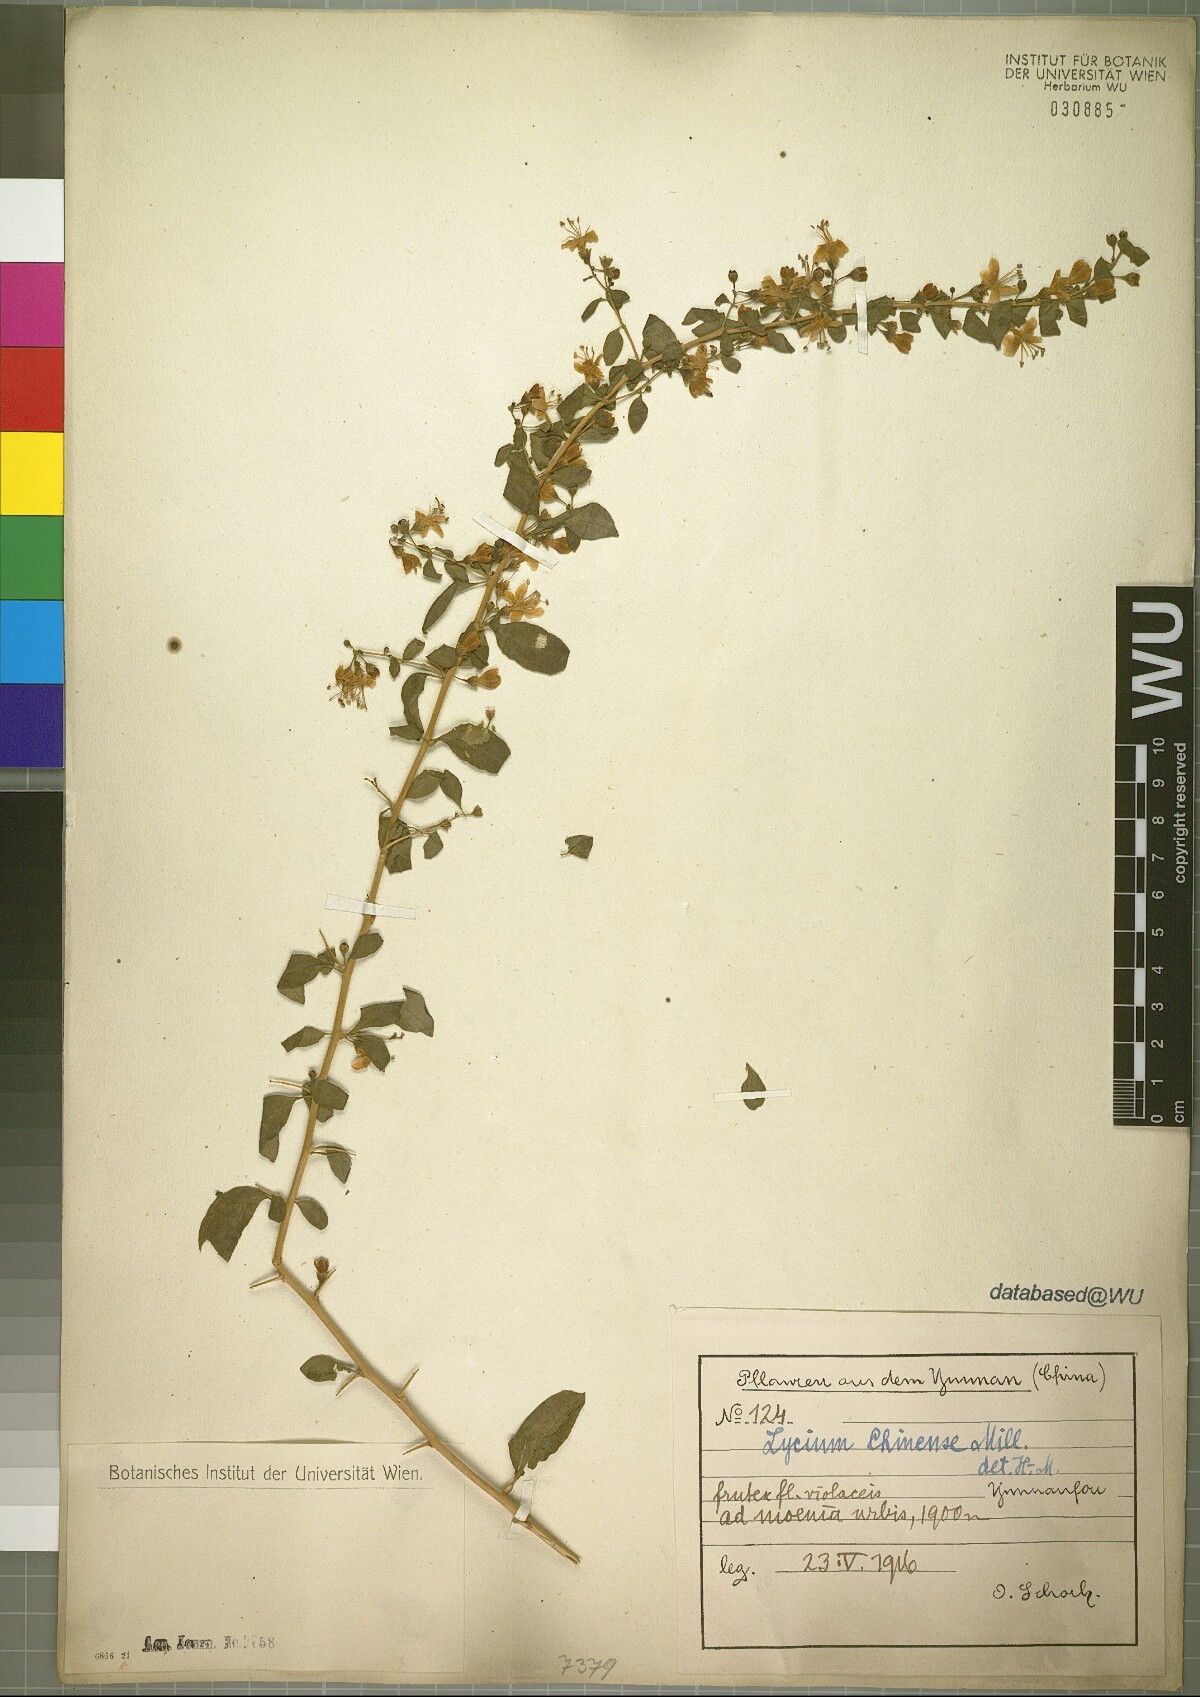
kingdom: Plantae
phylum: Tracheophyta
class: Magnoliopsida
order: Solanales
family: Solanaceae
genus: Lycium
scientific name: Lycium chinense
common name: Chinese teaplant
